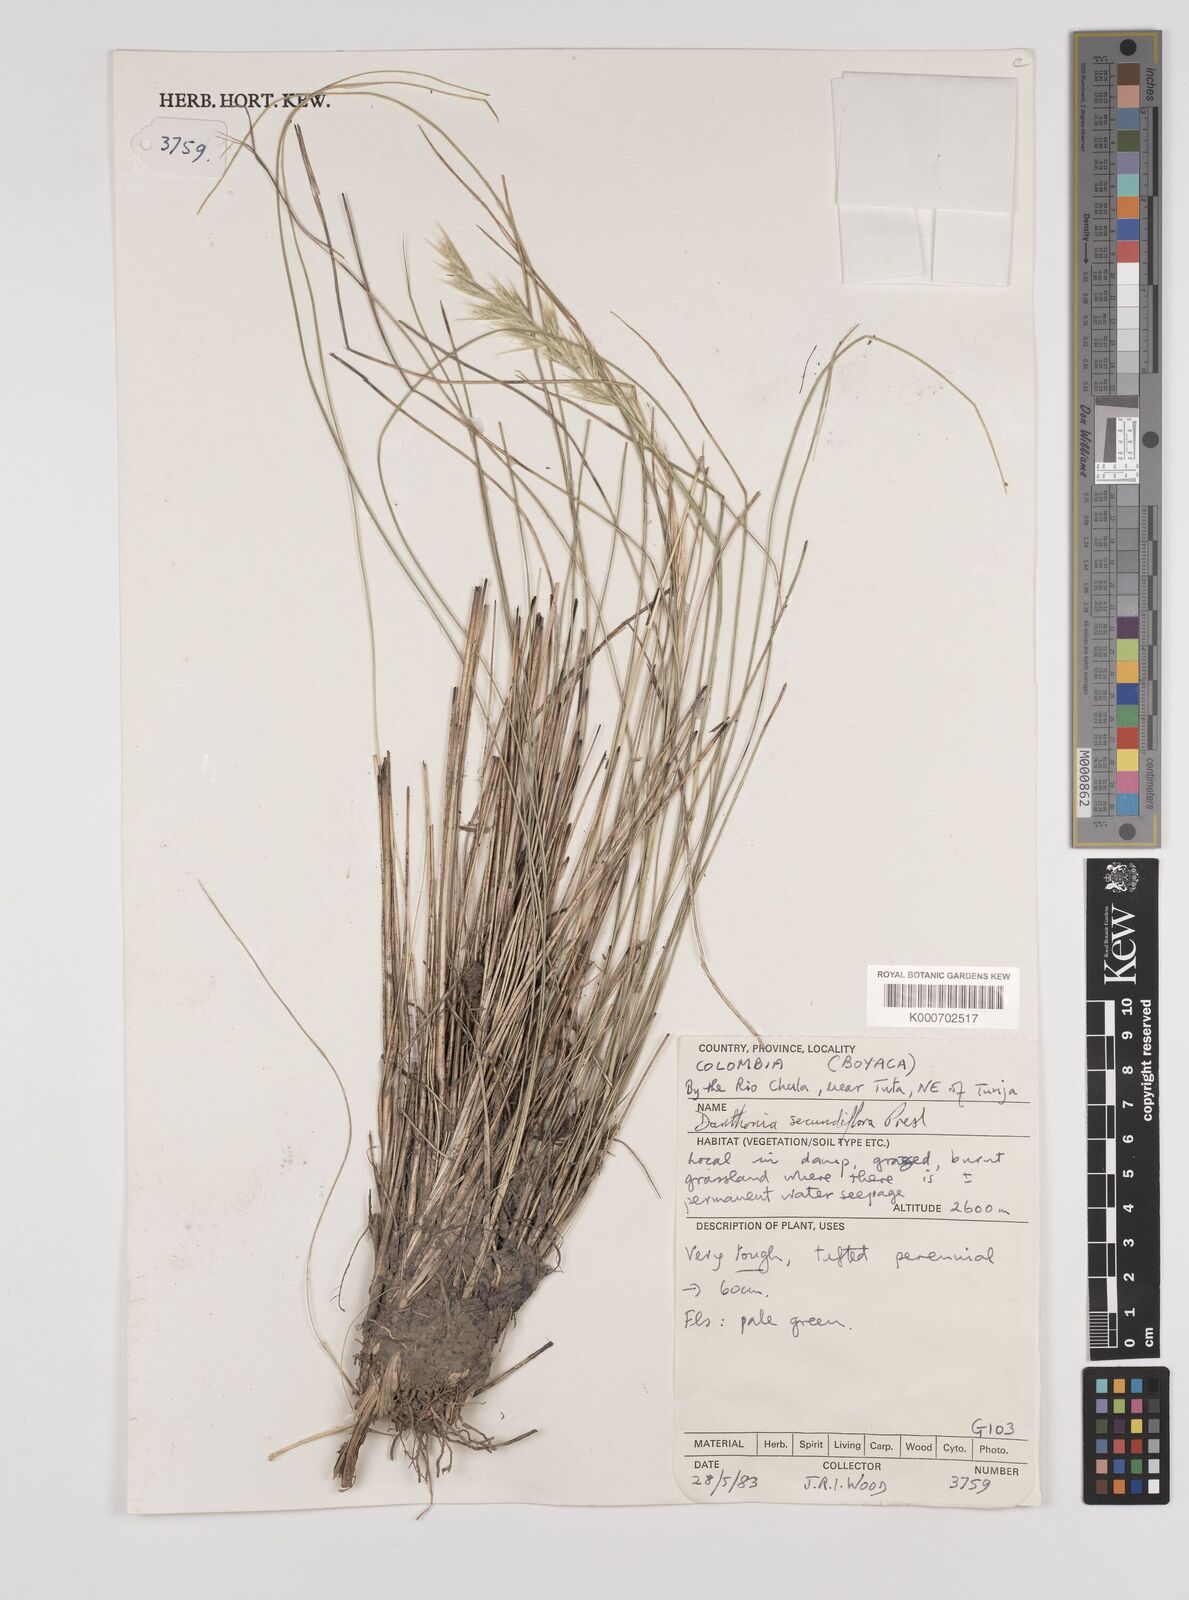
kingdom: Plantae
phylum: Tracheophyta
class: Liliopsida
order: Poales
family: Poaceae
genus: Danthonia
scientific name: Danthonia secundiflora
